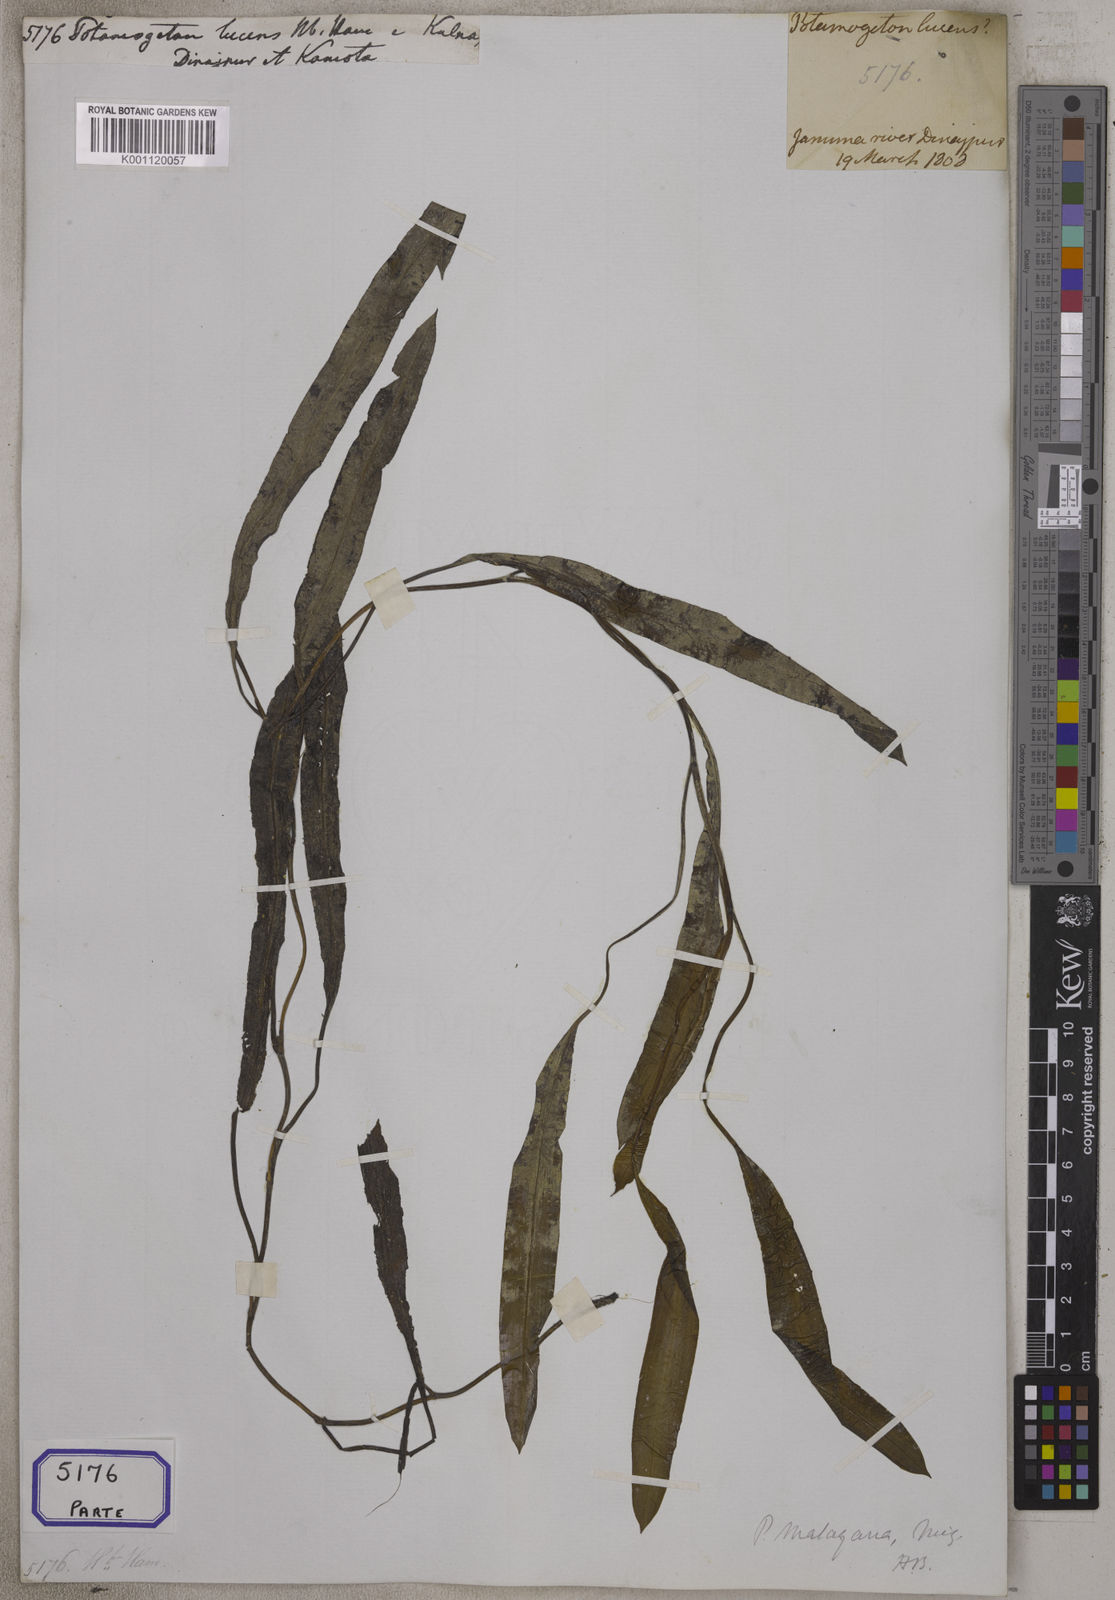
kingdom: Plantae
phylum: Tracheophyta
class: Liliopsida
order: Alismatales
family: Potamogetonaceae
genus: Potamogeton
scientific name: Potamogeton lucens
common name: Shining pondweed
